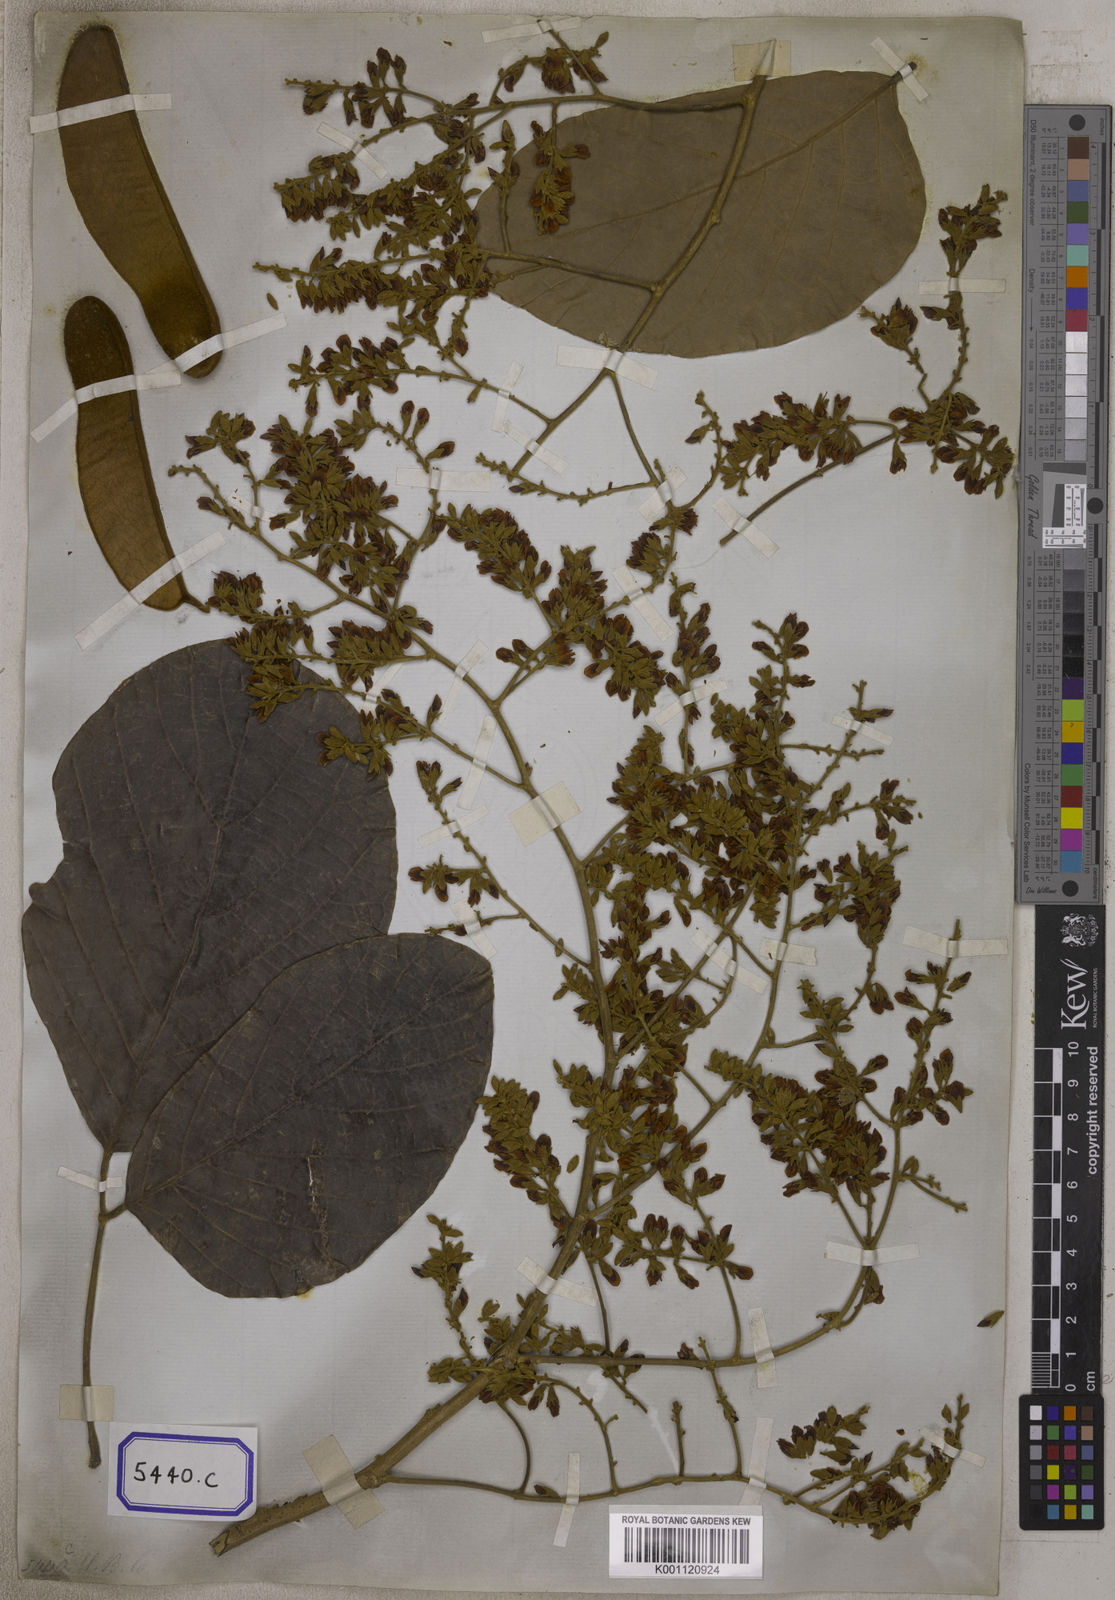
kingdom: Plantae
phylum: Tracheophyta
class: Magnoliopsida
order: Fabales
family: Fabaceae
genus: Butea
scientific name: Butea
